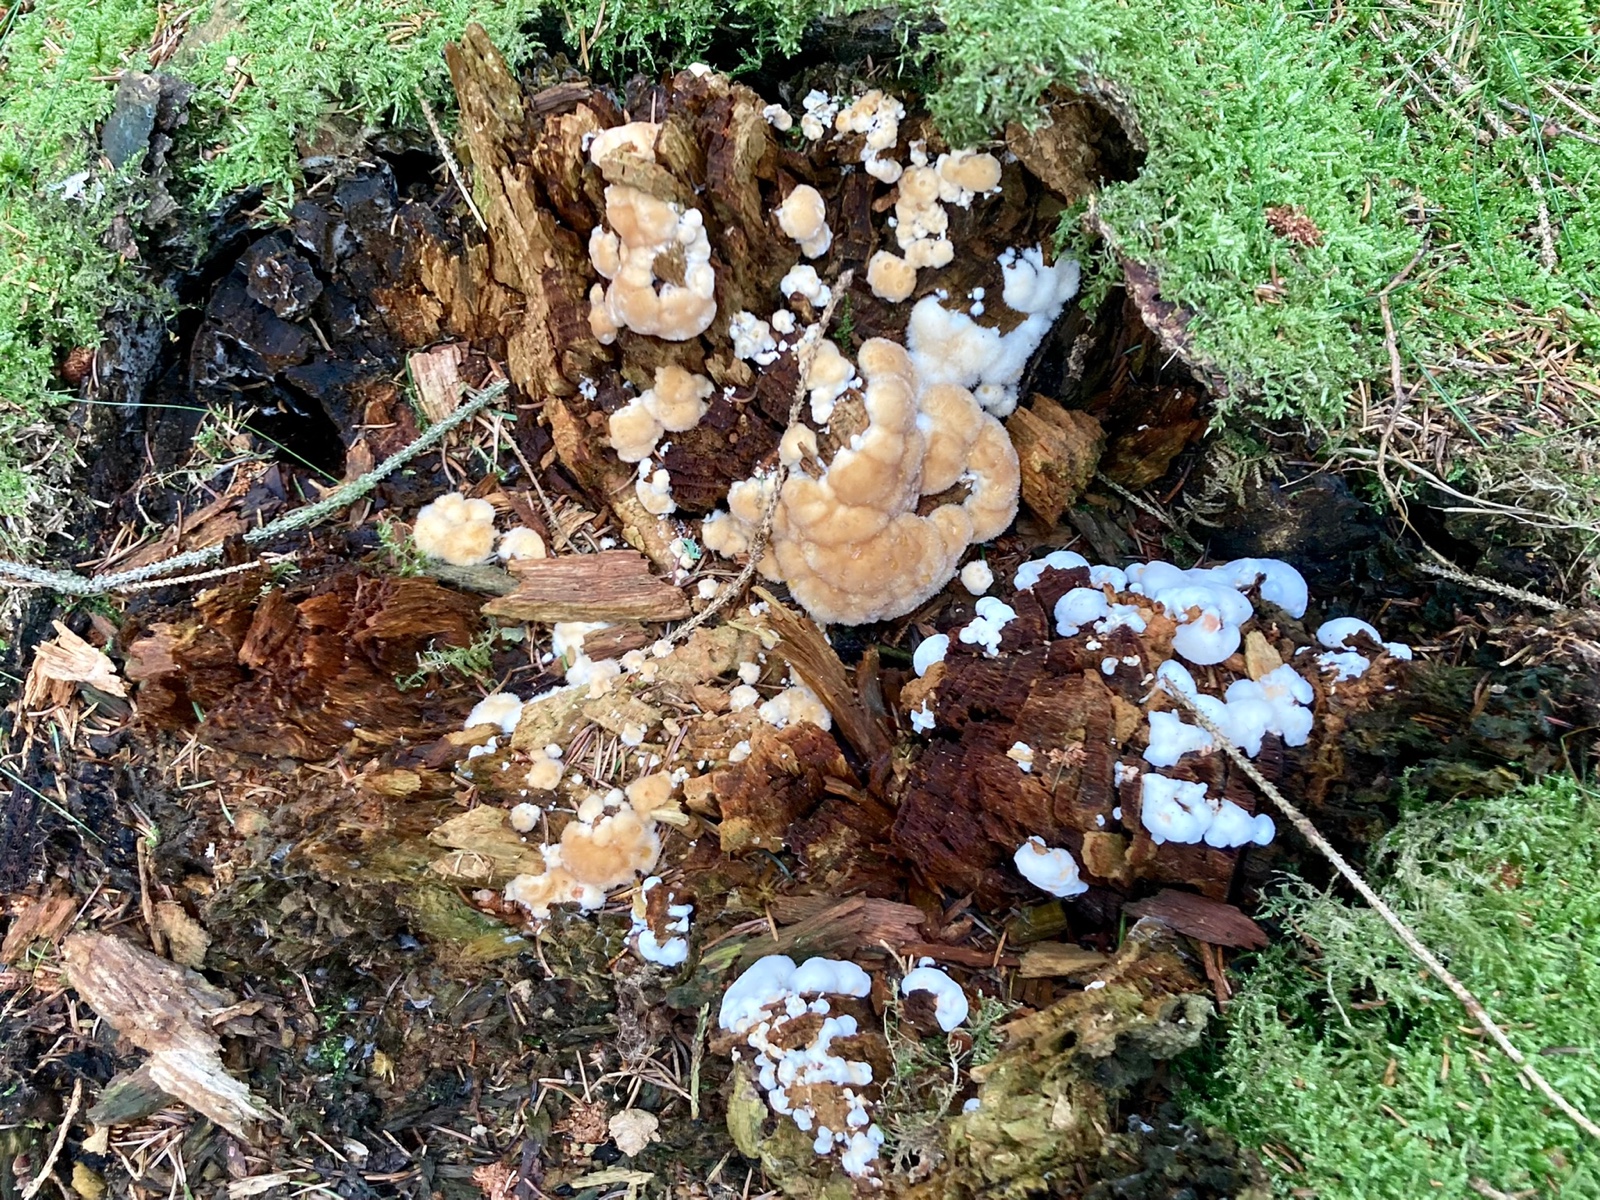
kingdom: Fungi
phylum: Basidiomycota
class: Agaricomycetes
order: Polyporales
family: Dacryobolaceae
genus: Postia
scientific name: Postia ptychogaster
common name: støvende kødporesvamp
